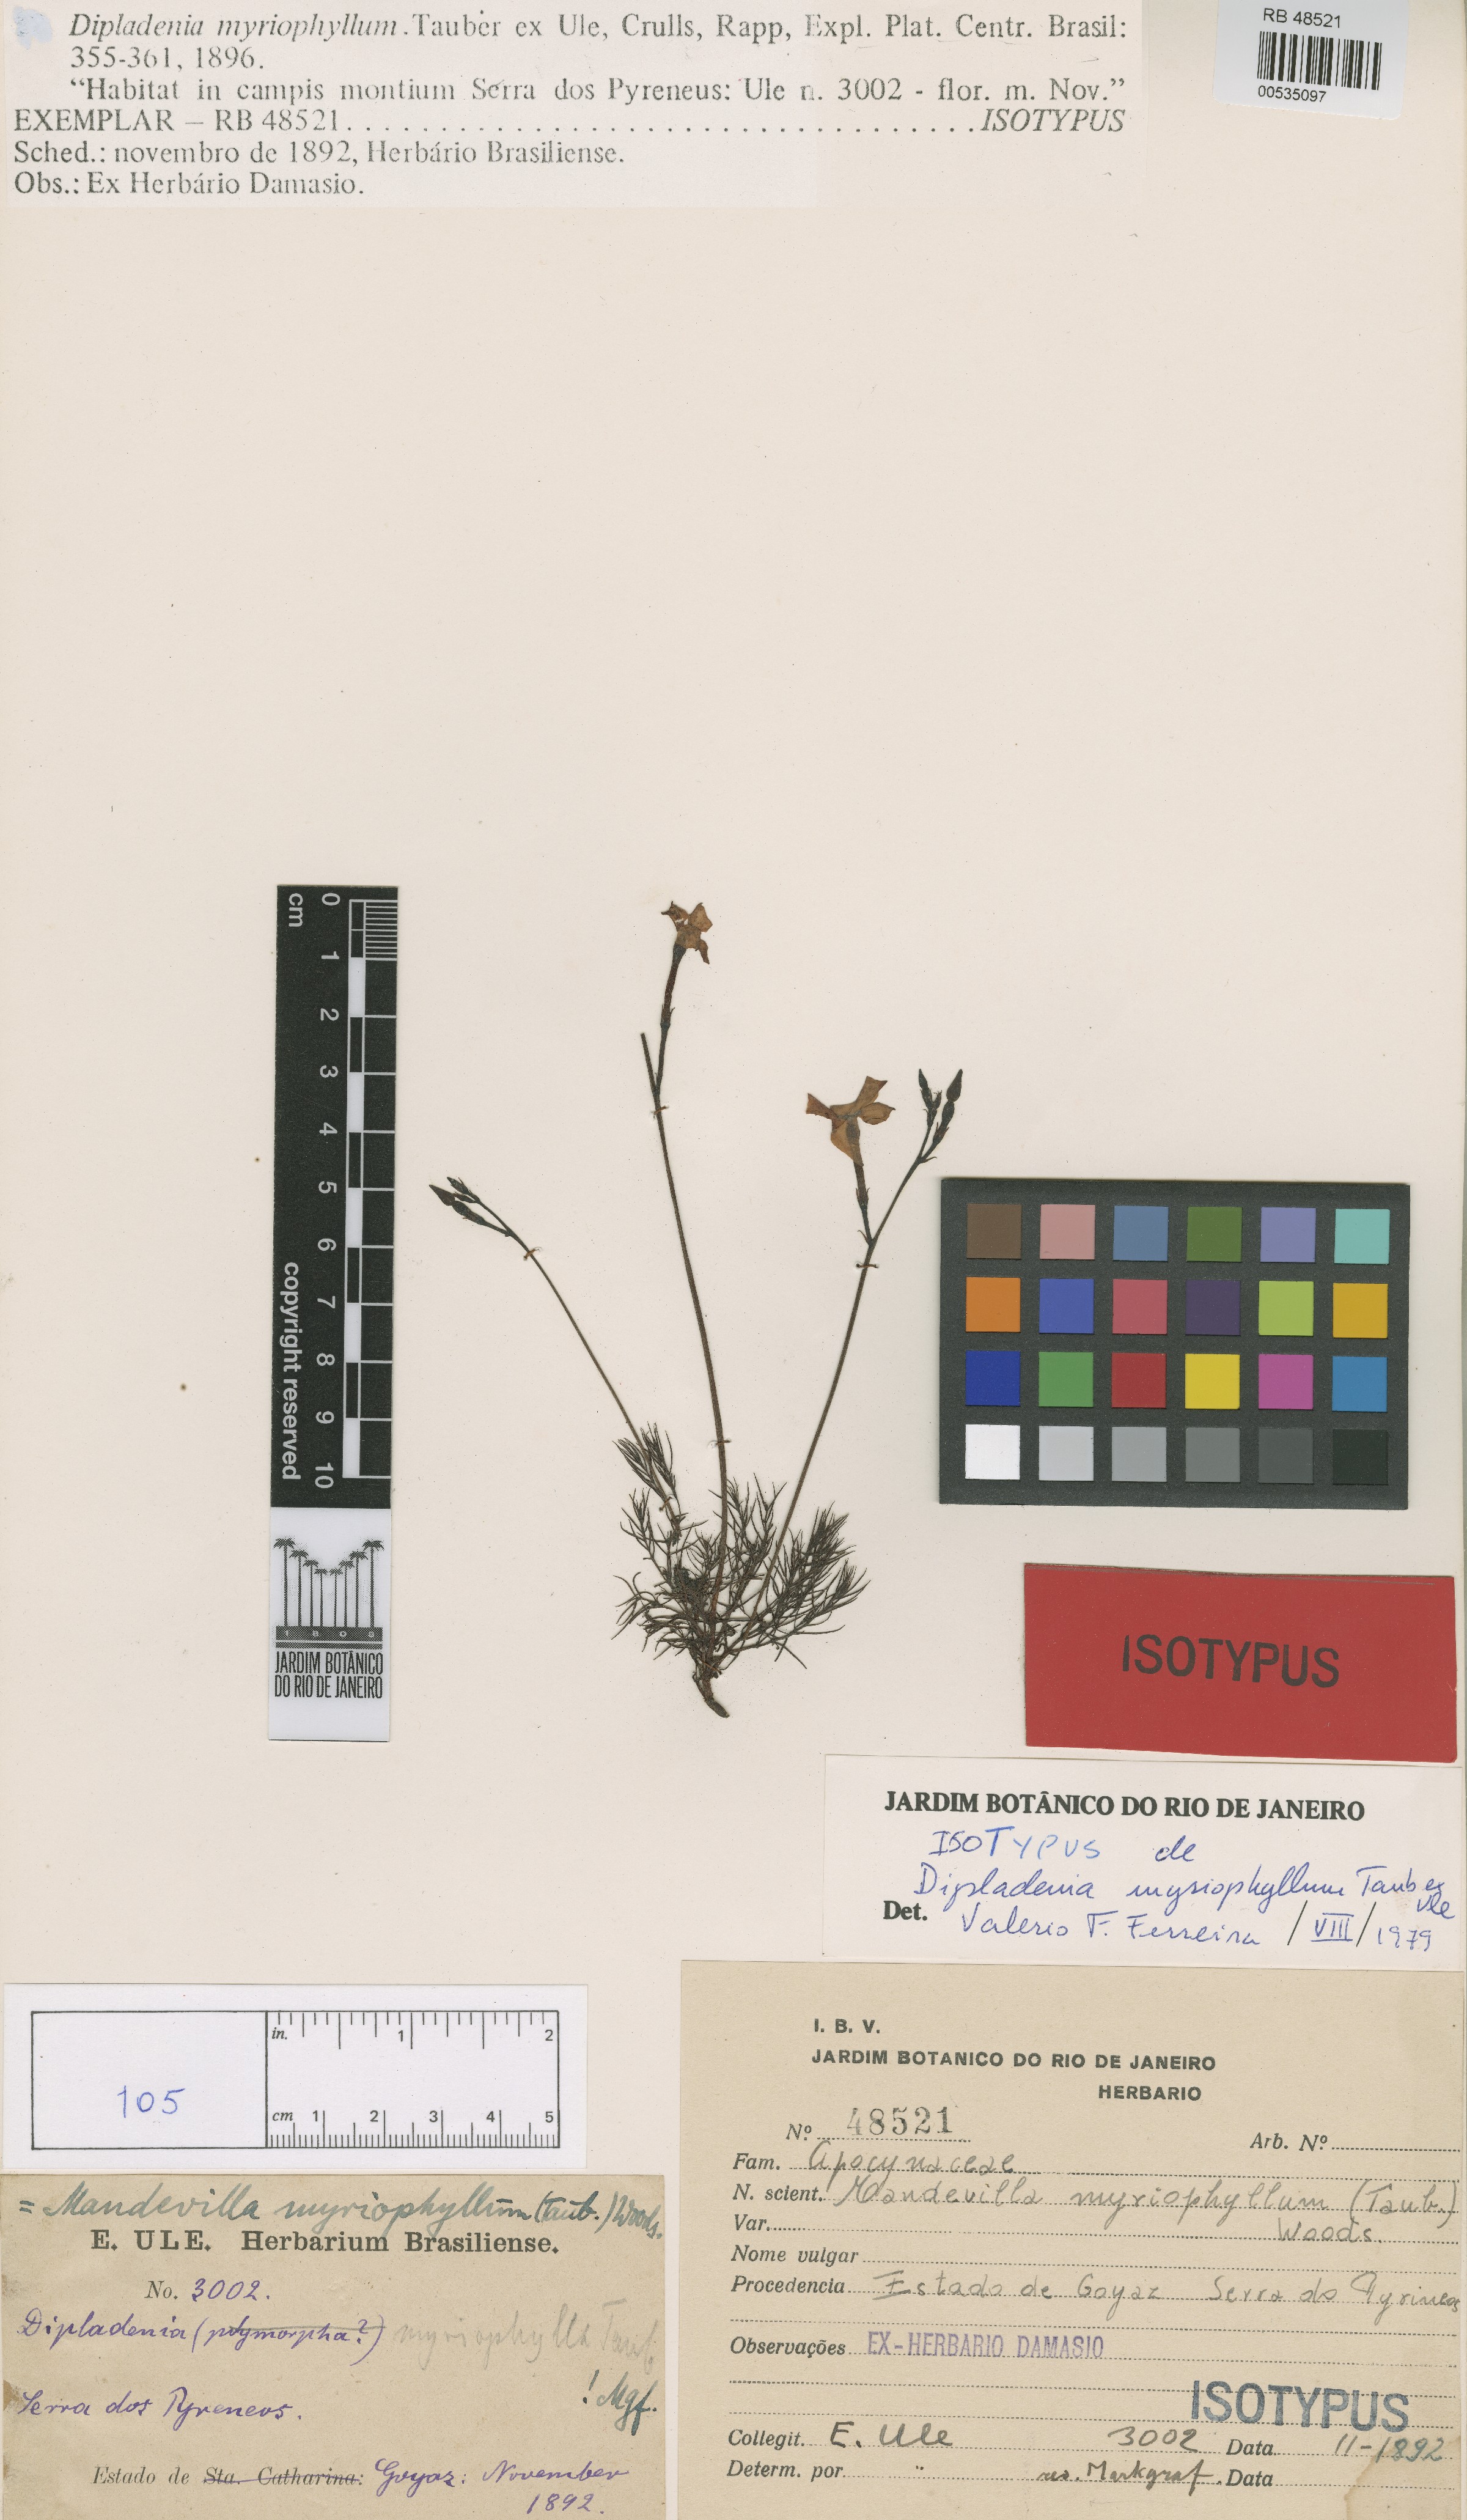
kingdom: Plantae
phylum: Tracheophyta
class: Magnoliopsida
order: Gentianales
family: Apocynaceae
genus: Mandevilla
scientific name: Mandevilla myriophyllum
